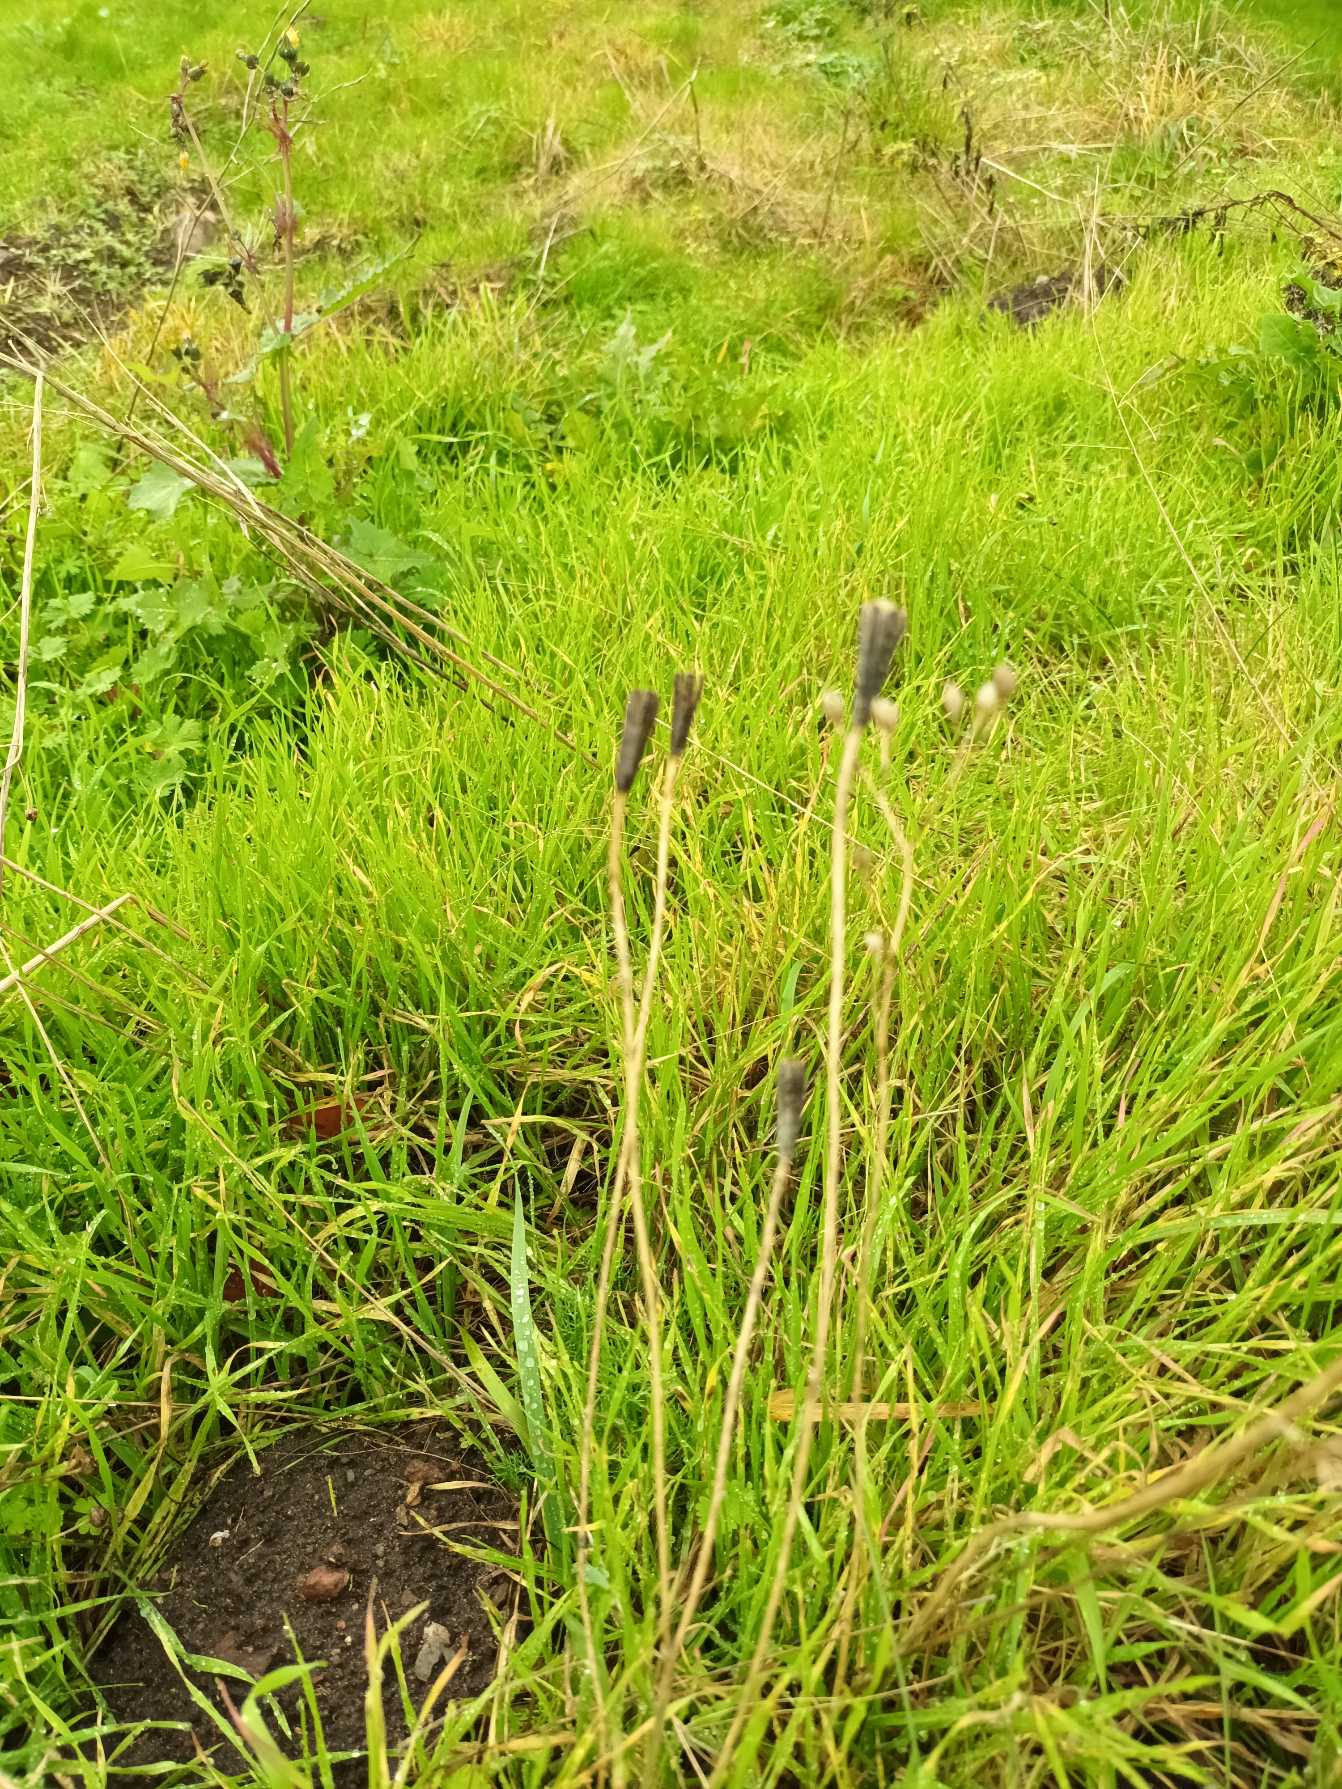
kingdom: Plantae
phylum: Tracheophyta
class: Magnoliopsida
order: Ranunculales
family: Papaveraceae
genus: Roemeria
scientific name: Roemeria argemone
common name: Kølle-valmue
